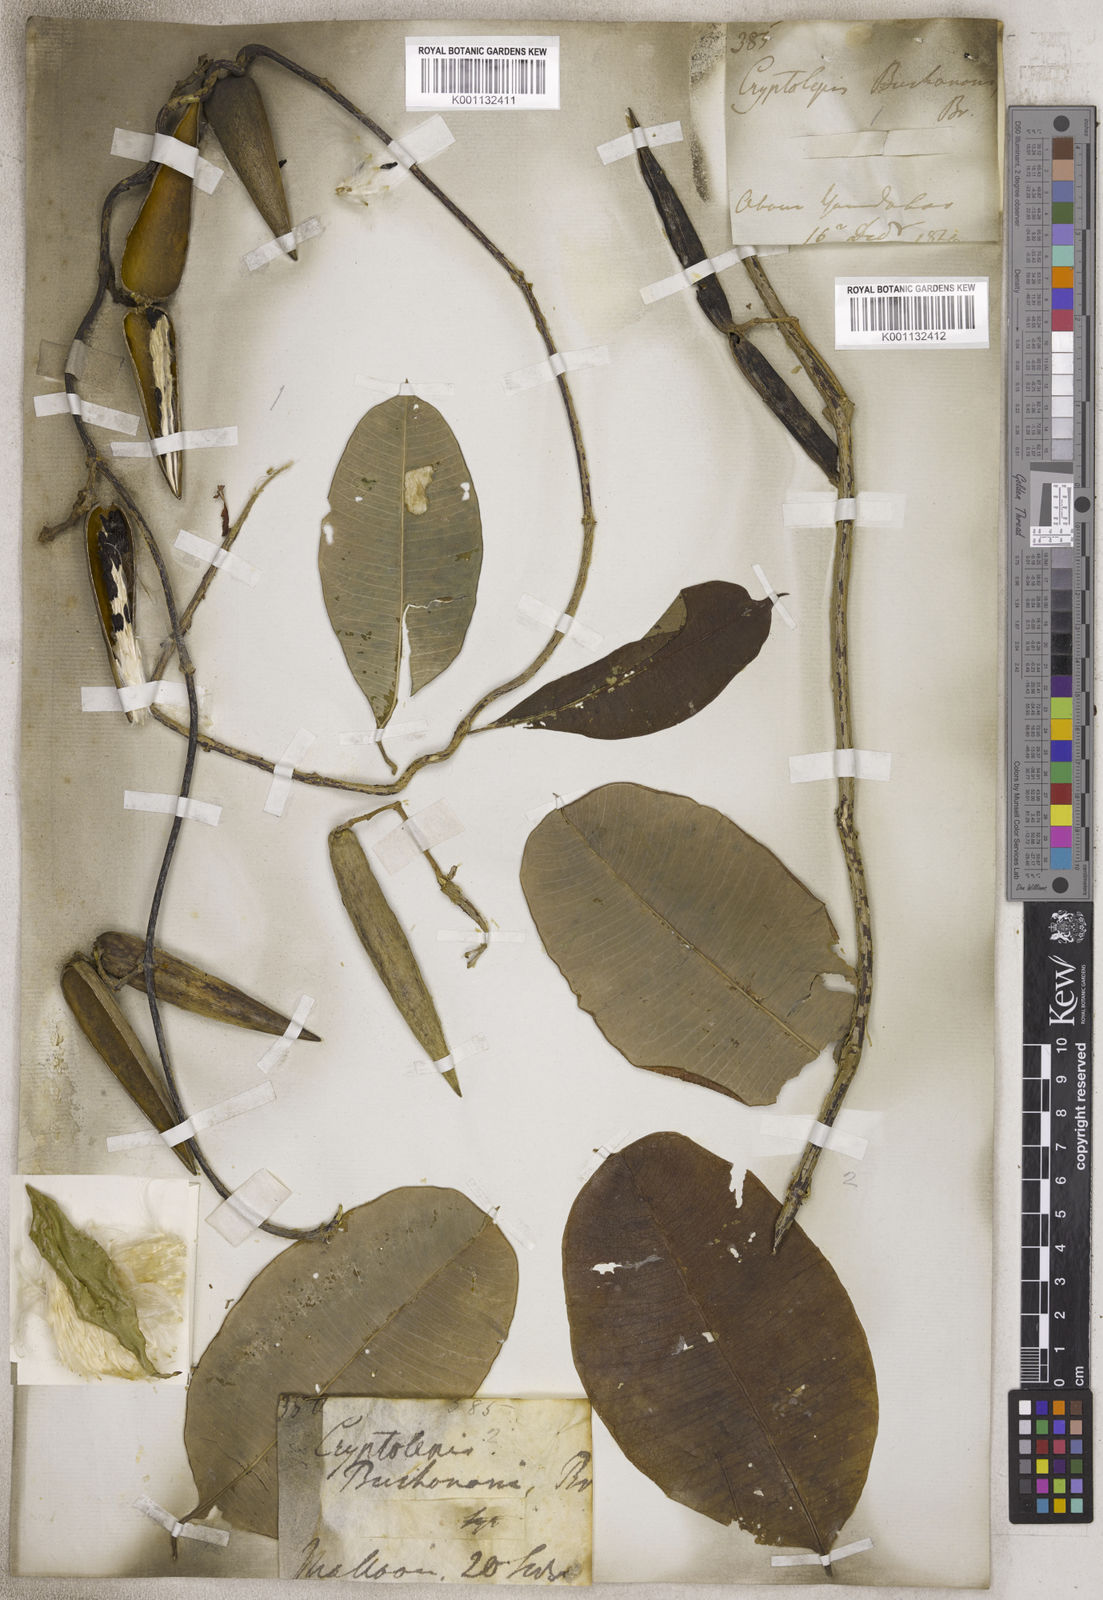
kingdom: Plantae
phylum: Tracheophyta
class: Magnoliopsida
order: Gentianales
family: Apocynaceae
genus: Cryptolepis
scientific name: Cryptolepis
